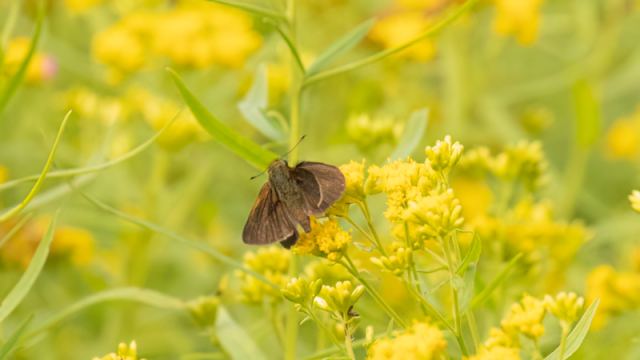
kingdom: Animalia
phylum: Arthropoda
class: Insecta
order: Lepidoptera
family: Hesperiidae
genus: Euphyes
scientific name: Euphyes vestris
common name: Dun Skipper
